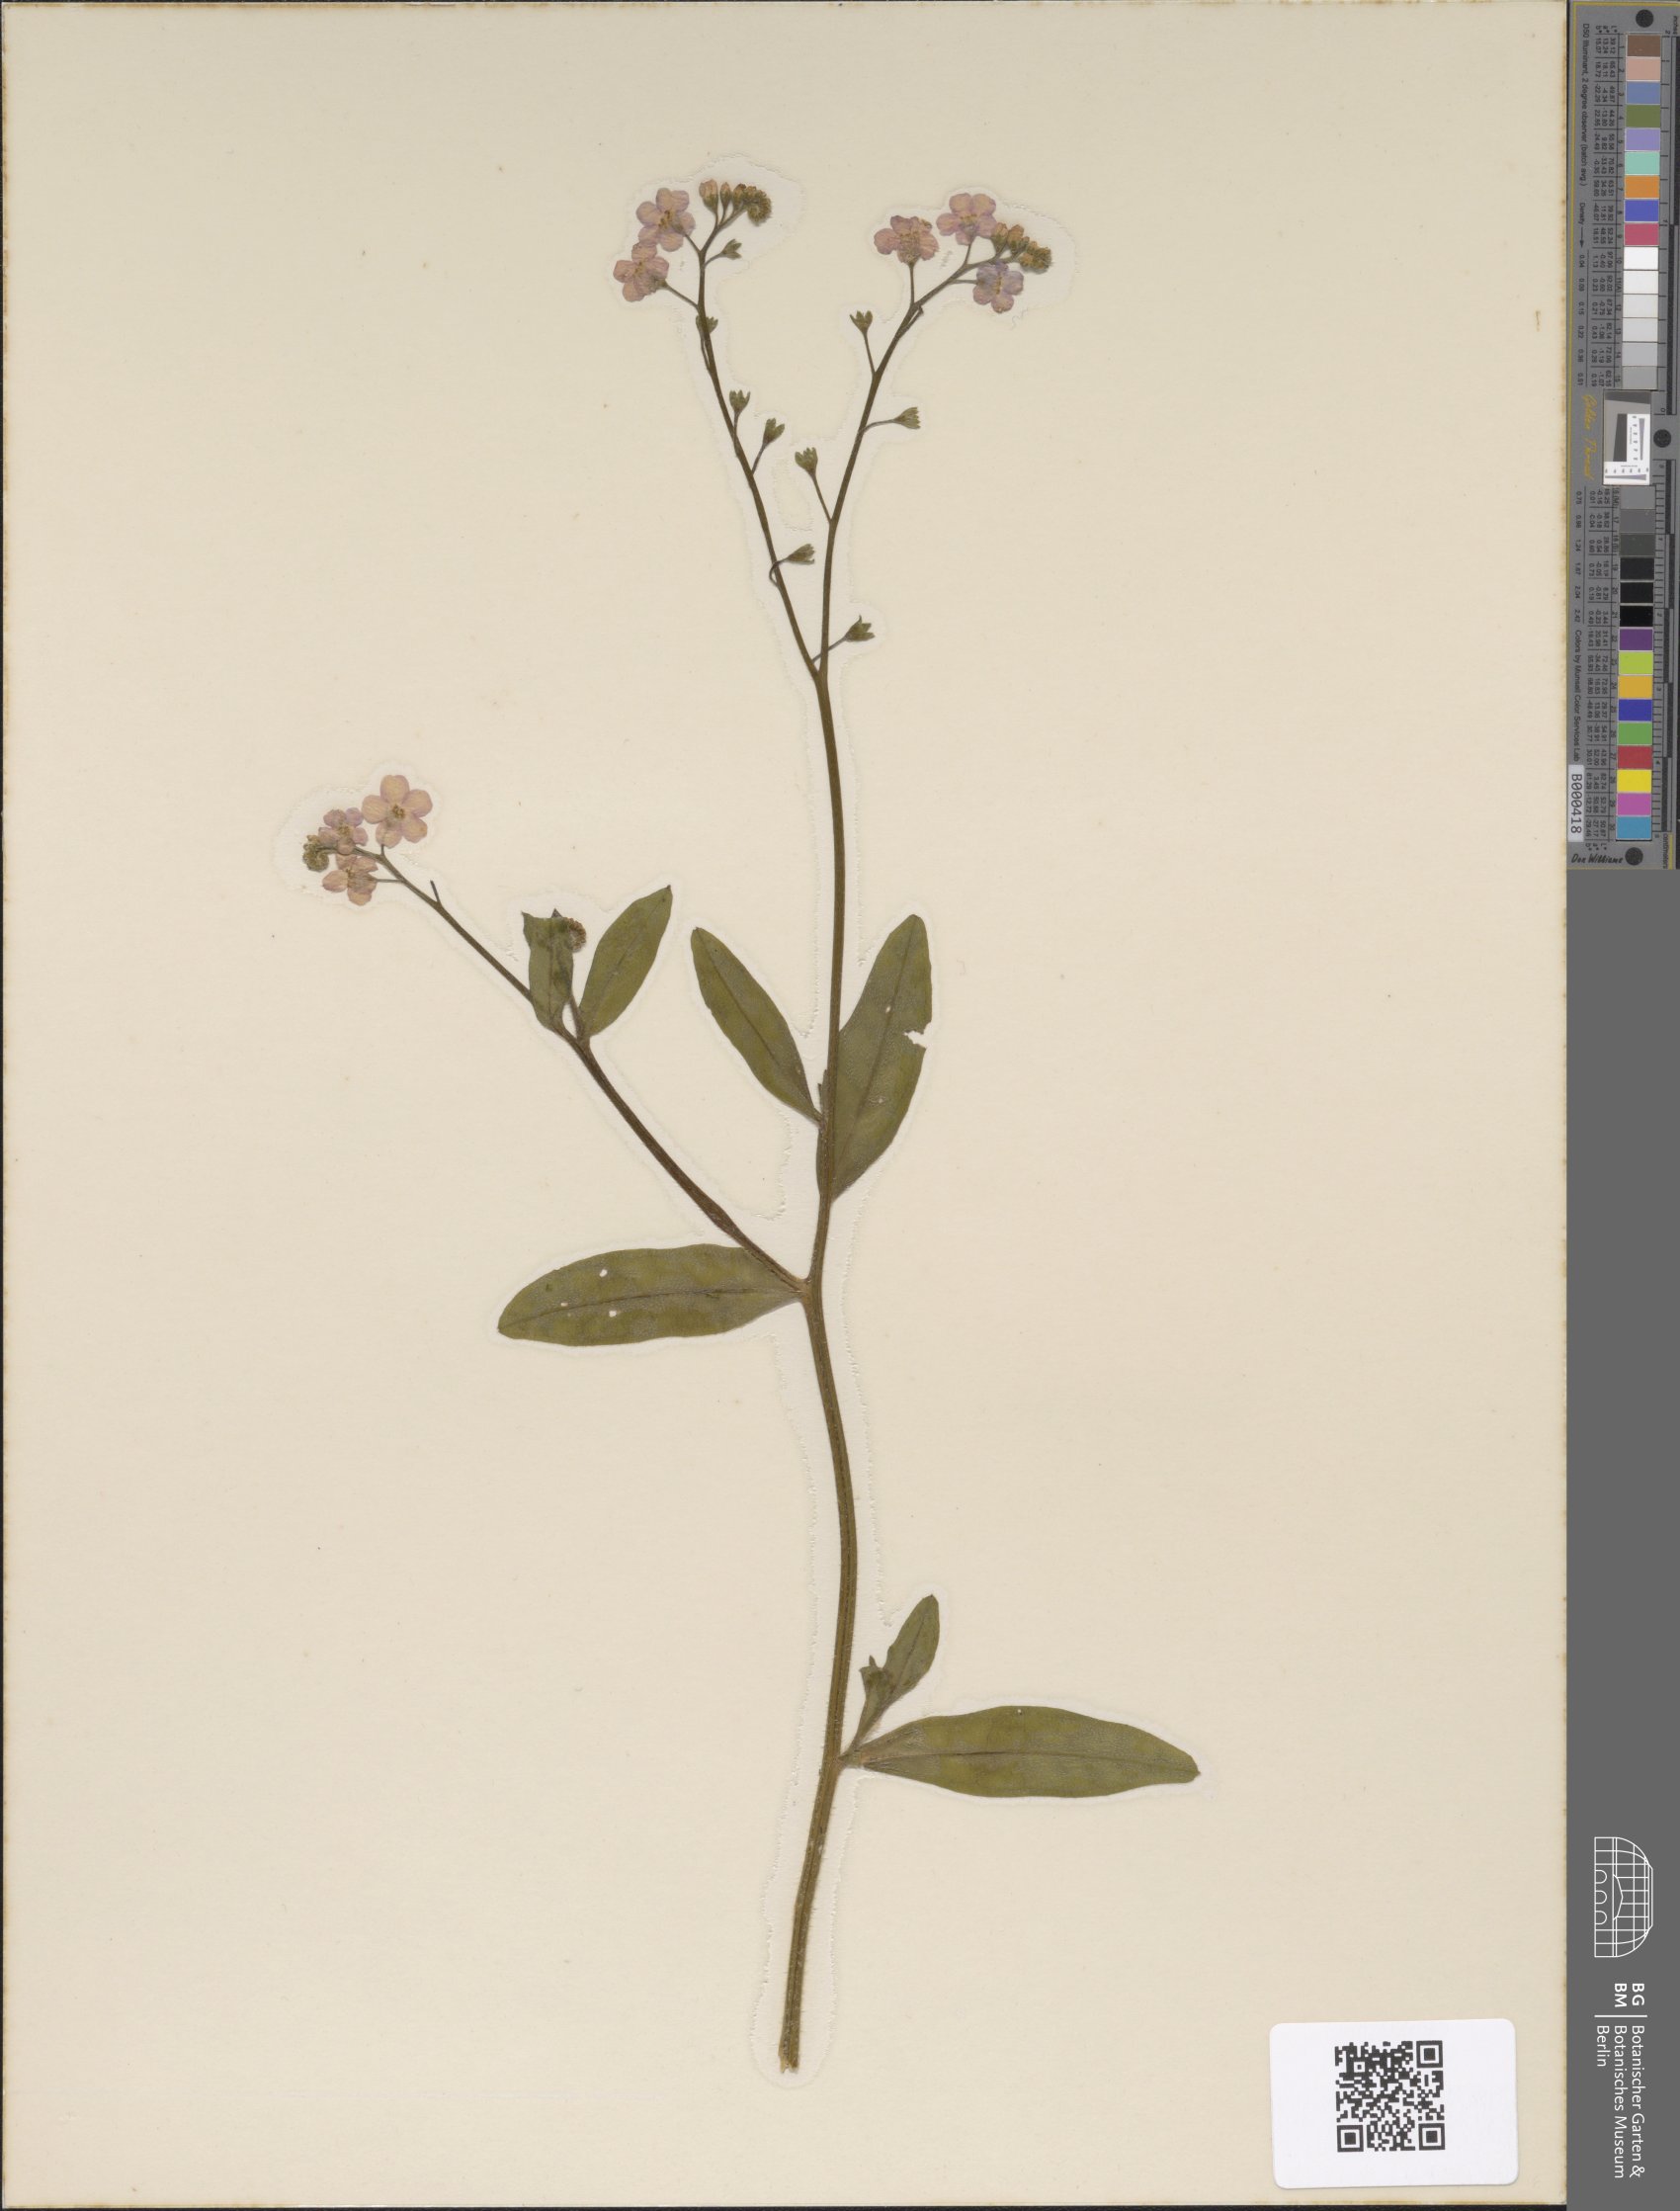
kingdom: Plantae
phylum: Tracheophyta
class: Magnoliopsida
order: Boraginales
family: Boraginaceae
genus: Myosotis
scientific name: Myosotis scorpioides
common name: Water forget-me-not
